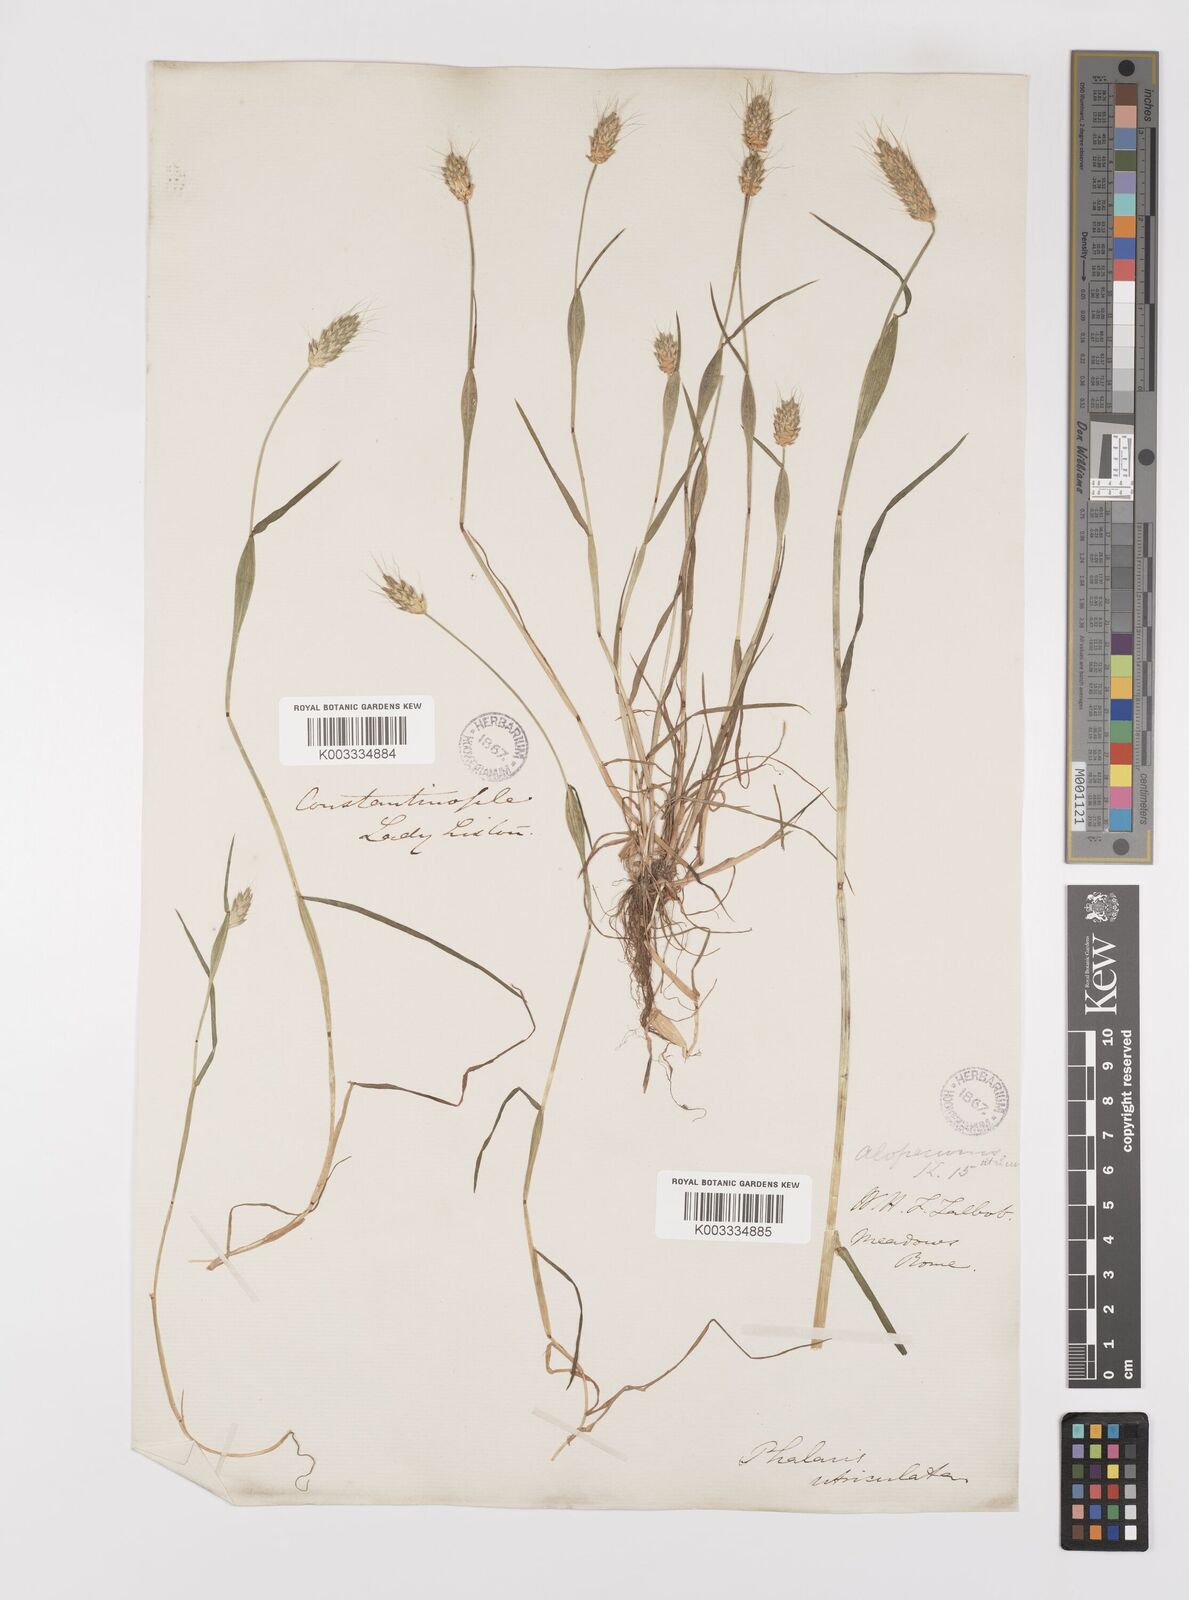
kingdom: Plantae
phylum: Tracheophyta
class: Liliopsida
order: Poales
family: Poaceae
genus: Alopecurus
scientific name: Alopecurus rendlei
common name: Rendle's meadow foxtail
